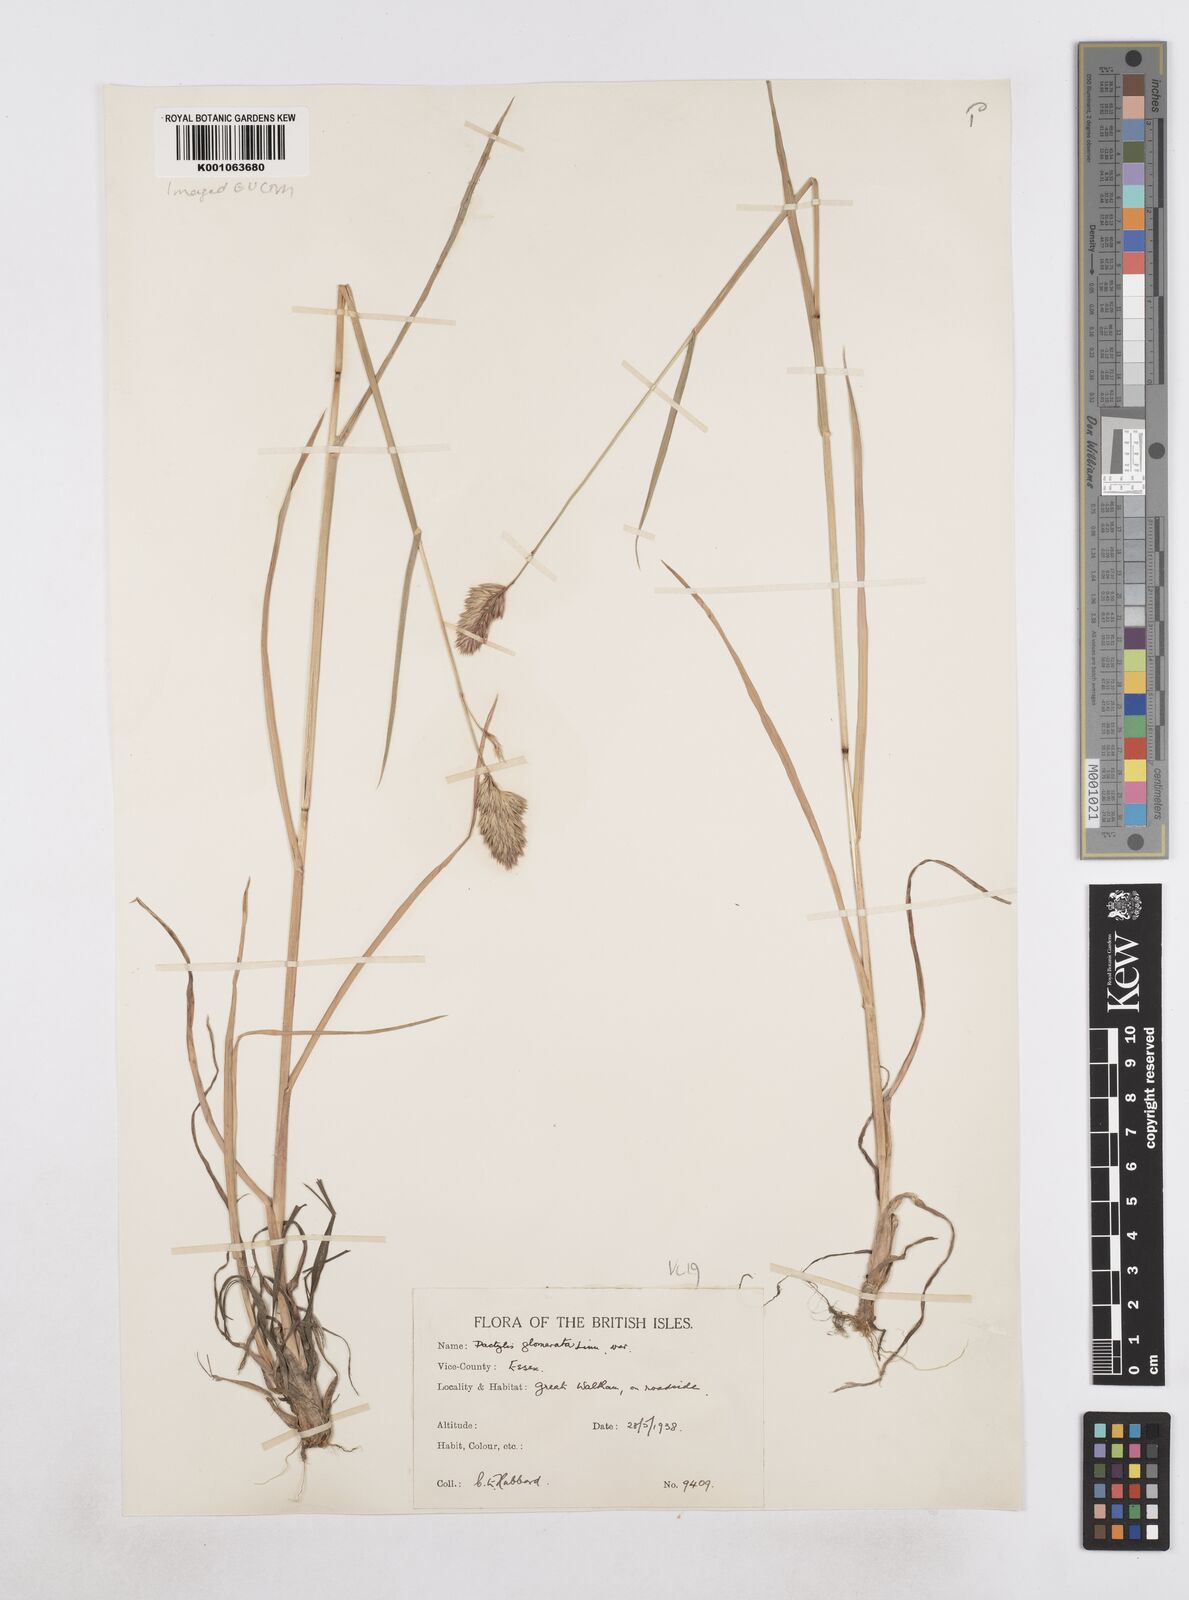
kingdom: Plantae
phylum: Tracheophyta
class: Liliopsida
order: Poales
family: Poaceae
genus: Dactylis
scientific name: Dactylis glomerata
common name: Orchardgrass
